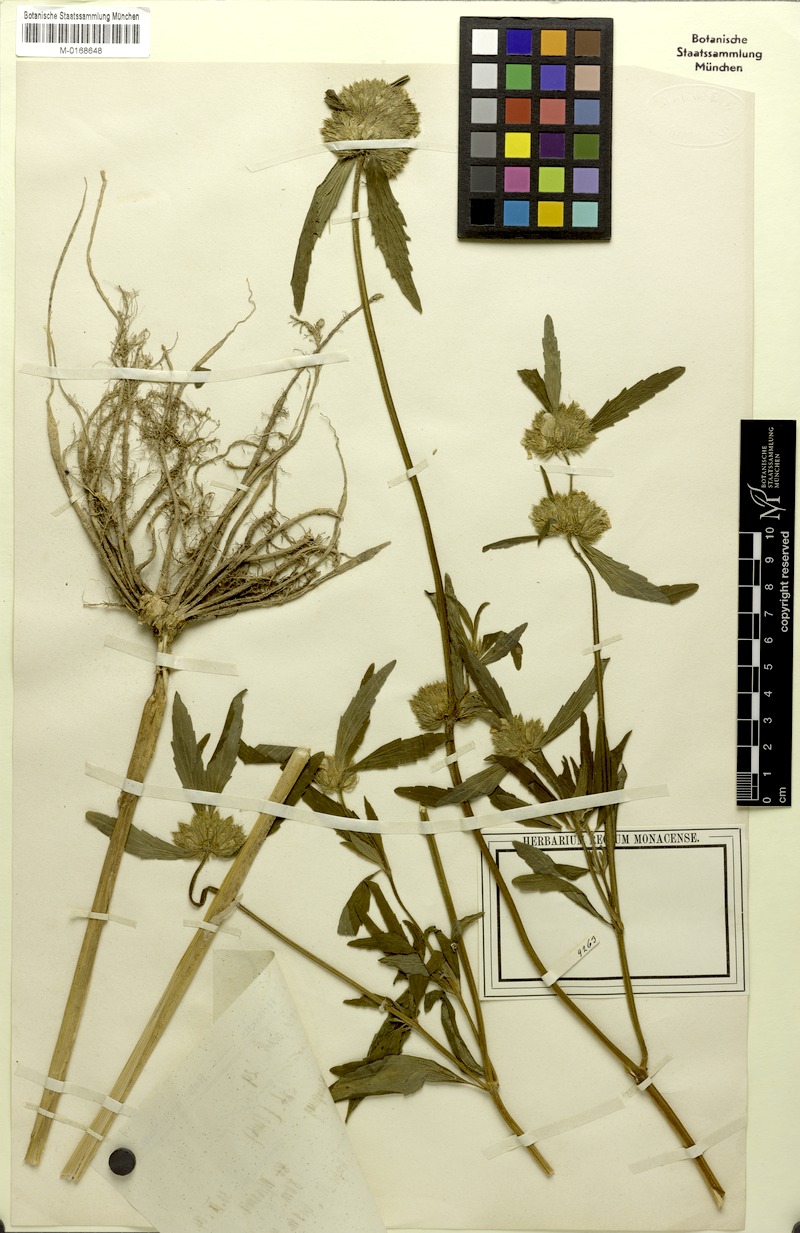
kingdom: Plantae
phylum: Tracheophyta
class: Magnoliopsida
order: Lamiales
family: Lamiaceae
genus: Leucas
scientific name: Leucas aspera
